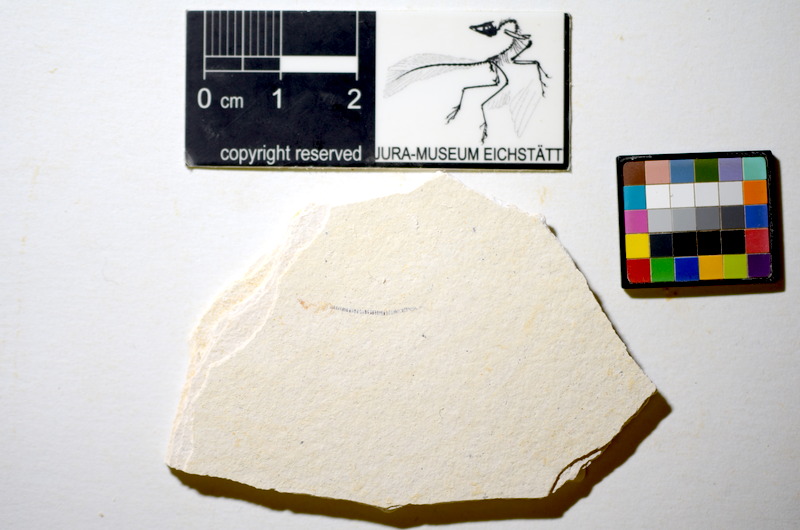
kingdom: Animalia
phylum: Chordata
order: Salmoniformes
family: Orthogonikleithridae
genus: Orthogonikleithrus
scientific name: Orthogonikleithrus hoelli
